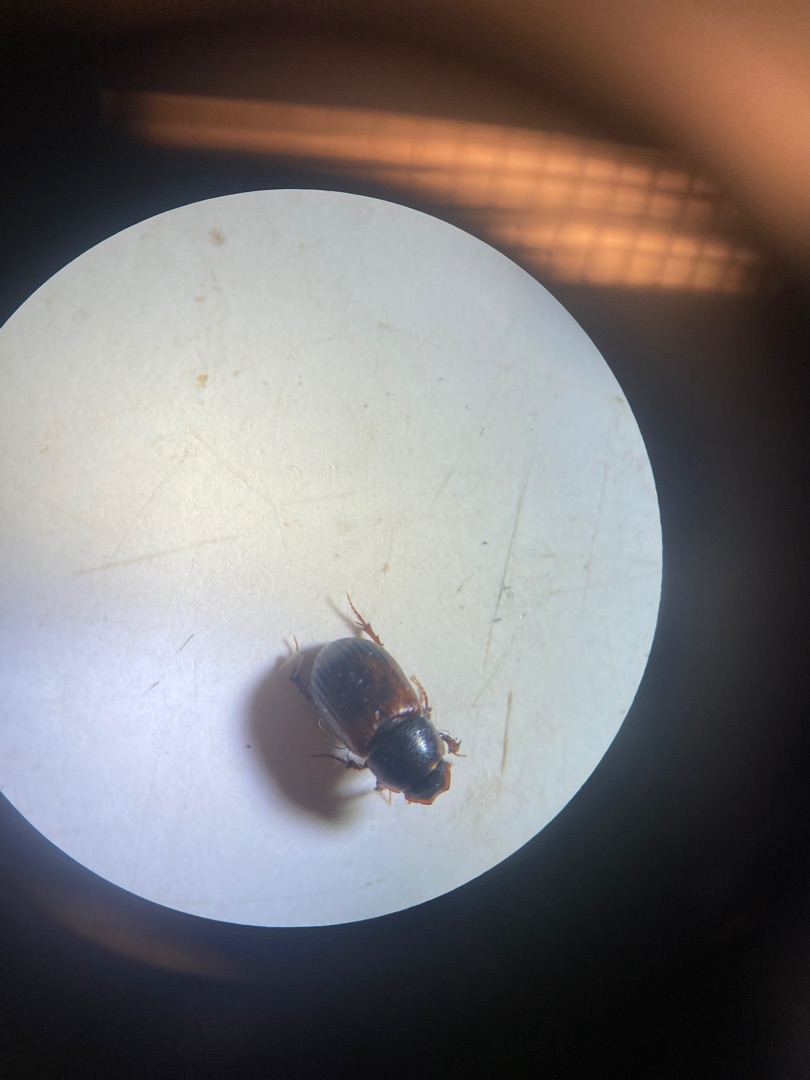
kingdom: Animalia
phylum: Arthropoda
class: Insecta
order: Coleoptera
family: Scarabaeidae
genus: Limarus
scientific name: Limarus zenkeri
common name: Skyggemøgbille
